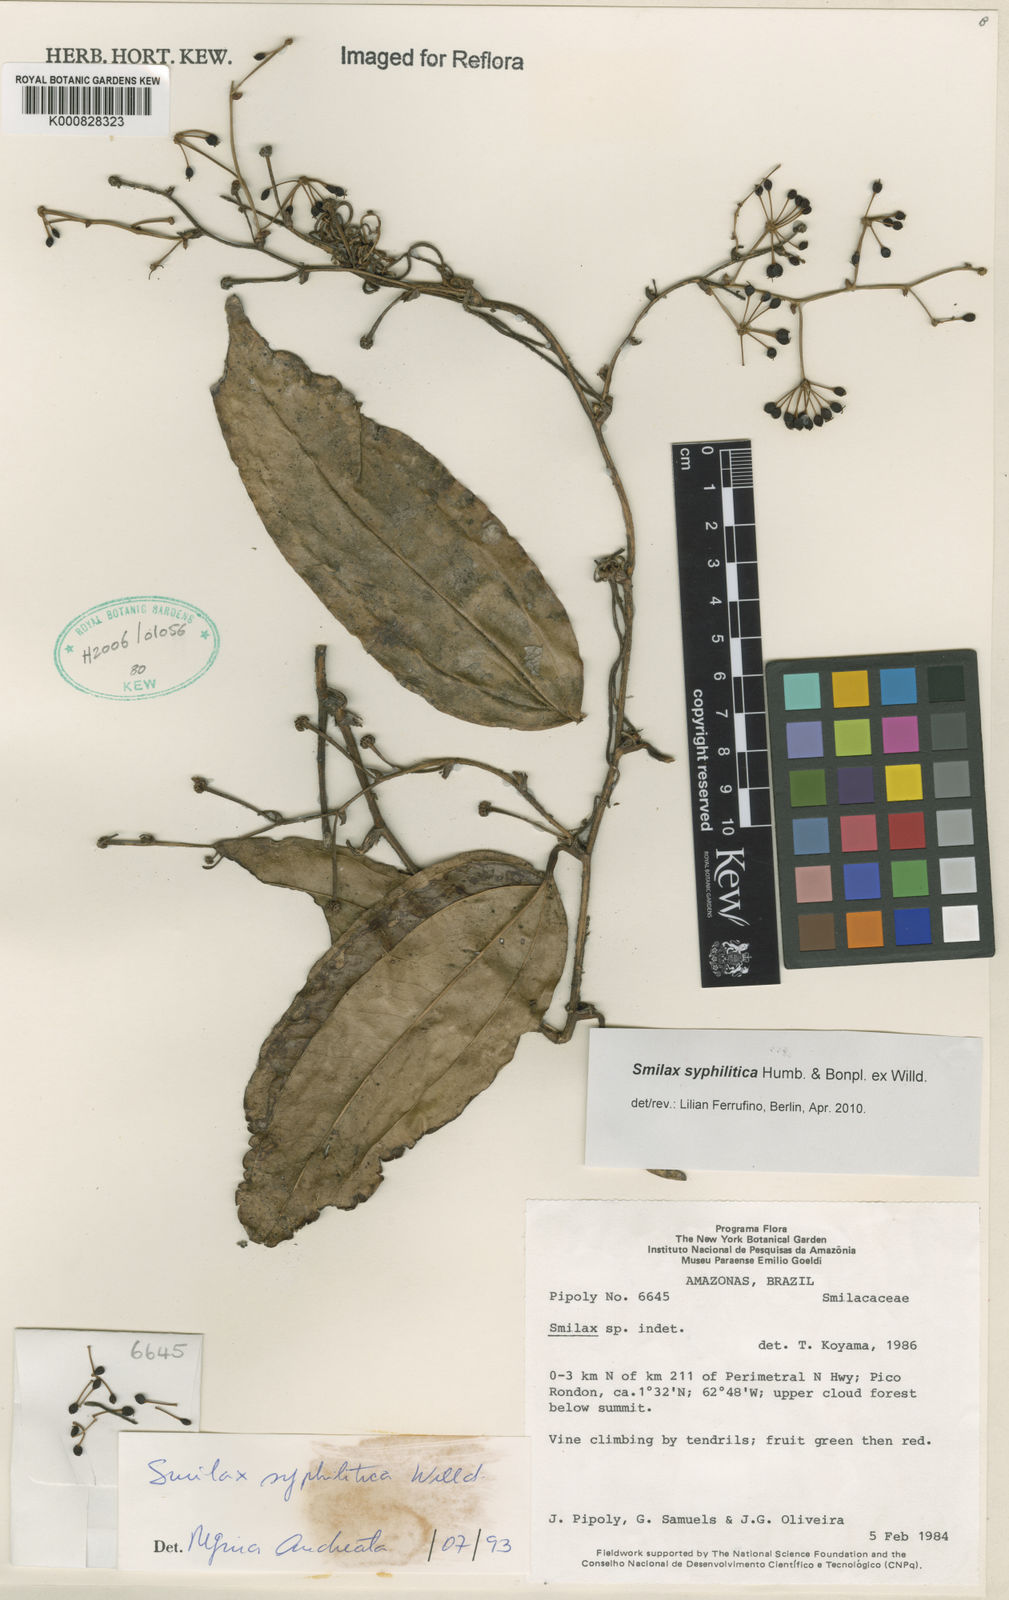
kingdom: Plantae
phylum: Tracheophyta
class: Liliopsida
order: Liliales
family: Smilacaceae
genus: Smilax
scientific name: Smilax siphilitica
